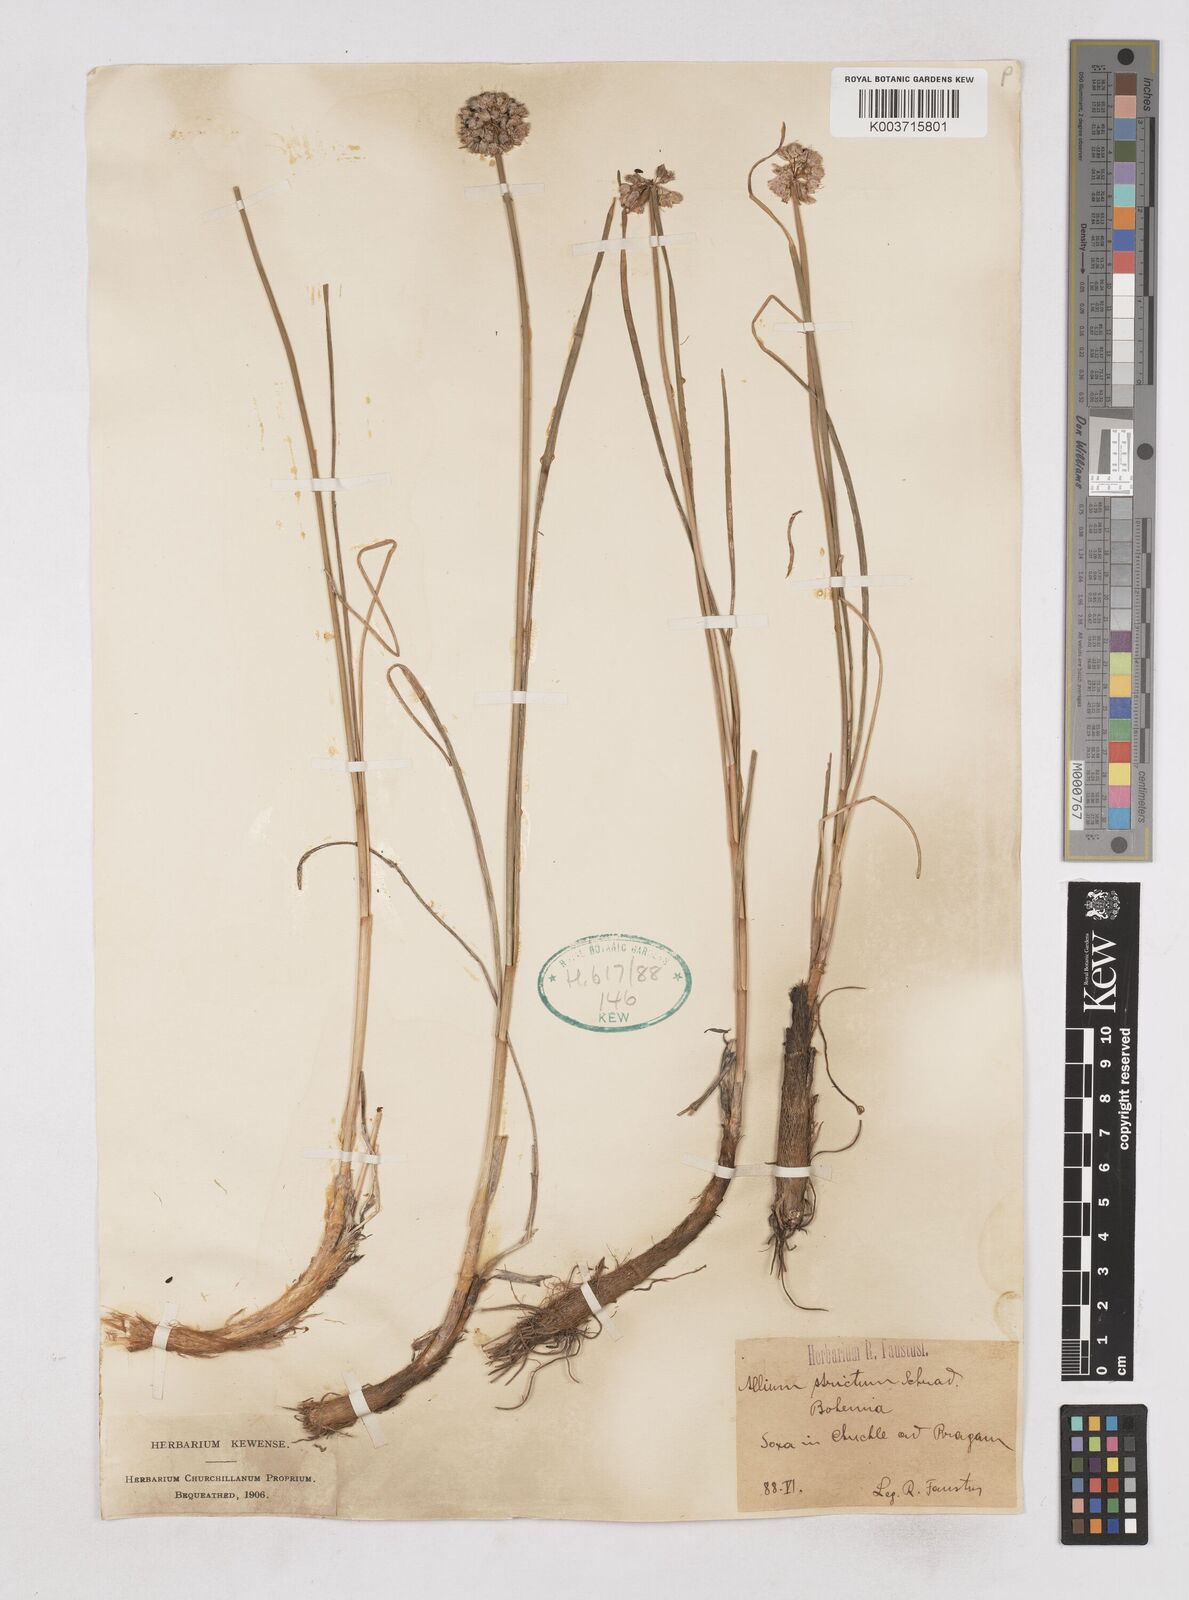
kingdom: Plantae
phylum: Tracheophyta
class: Liliopsida
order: Asparagales
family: Amaryllidaceae
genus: Allium
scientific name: Allium strictum
